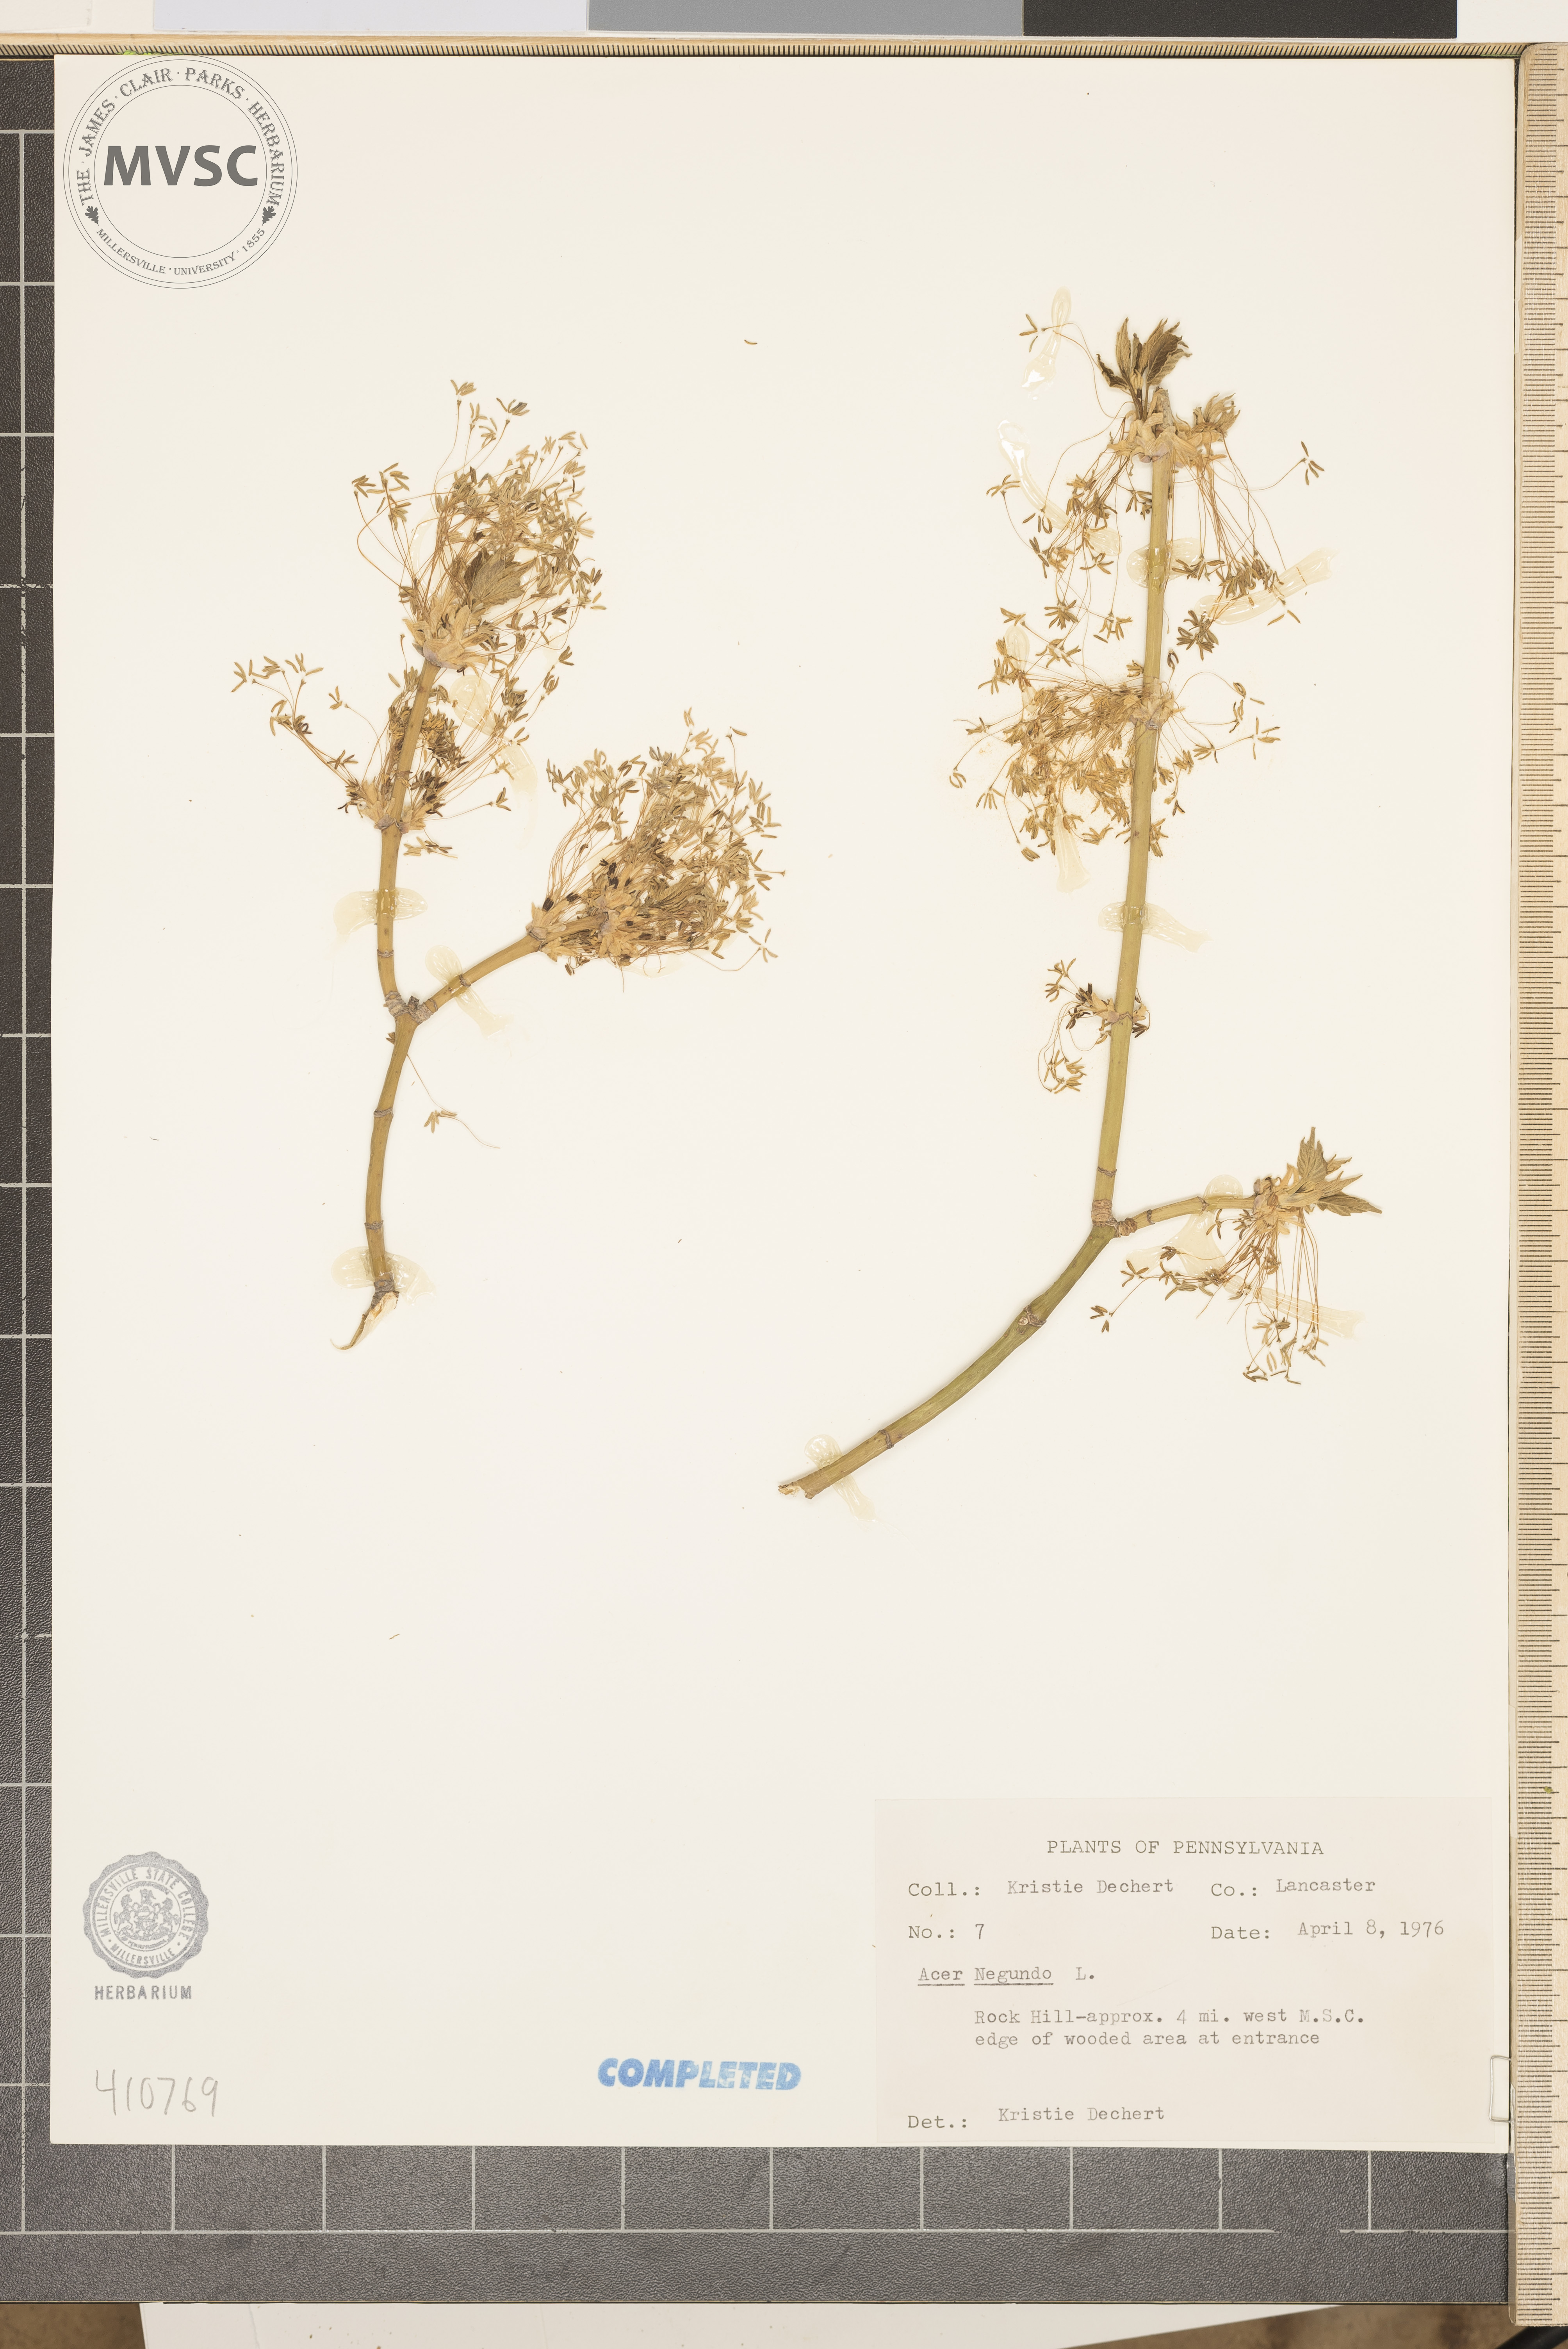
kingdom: Plantae
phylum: Tracheophyta
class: Magnoliopsida
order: Sapindales
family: Sapindaceae
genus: Acer
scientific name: Acer negundo
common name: Ashleaf maple
